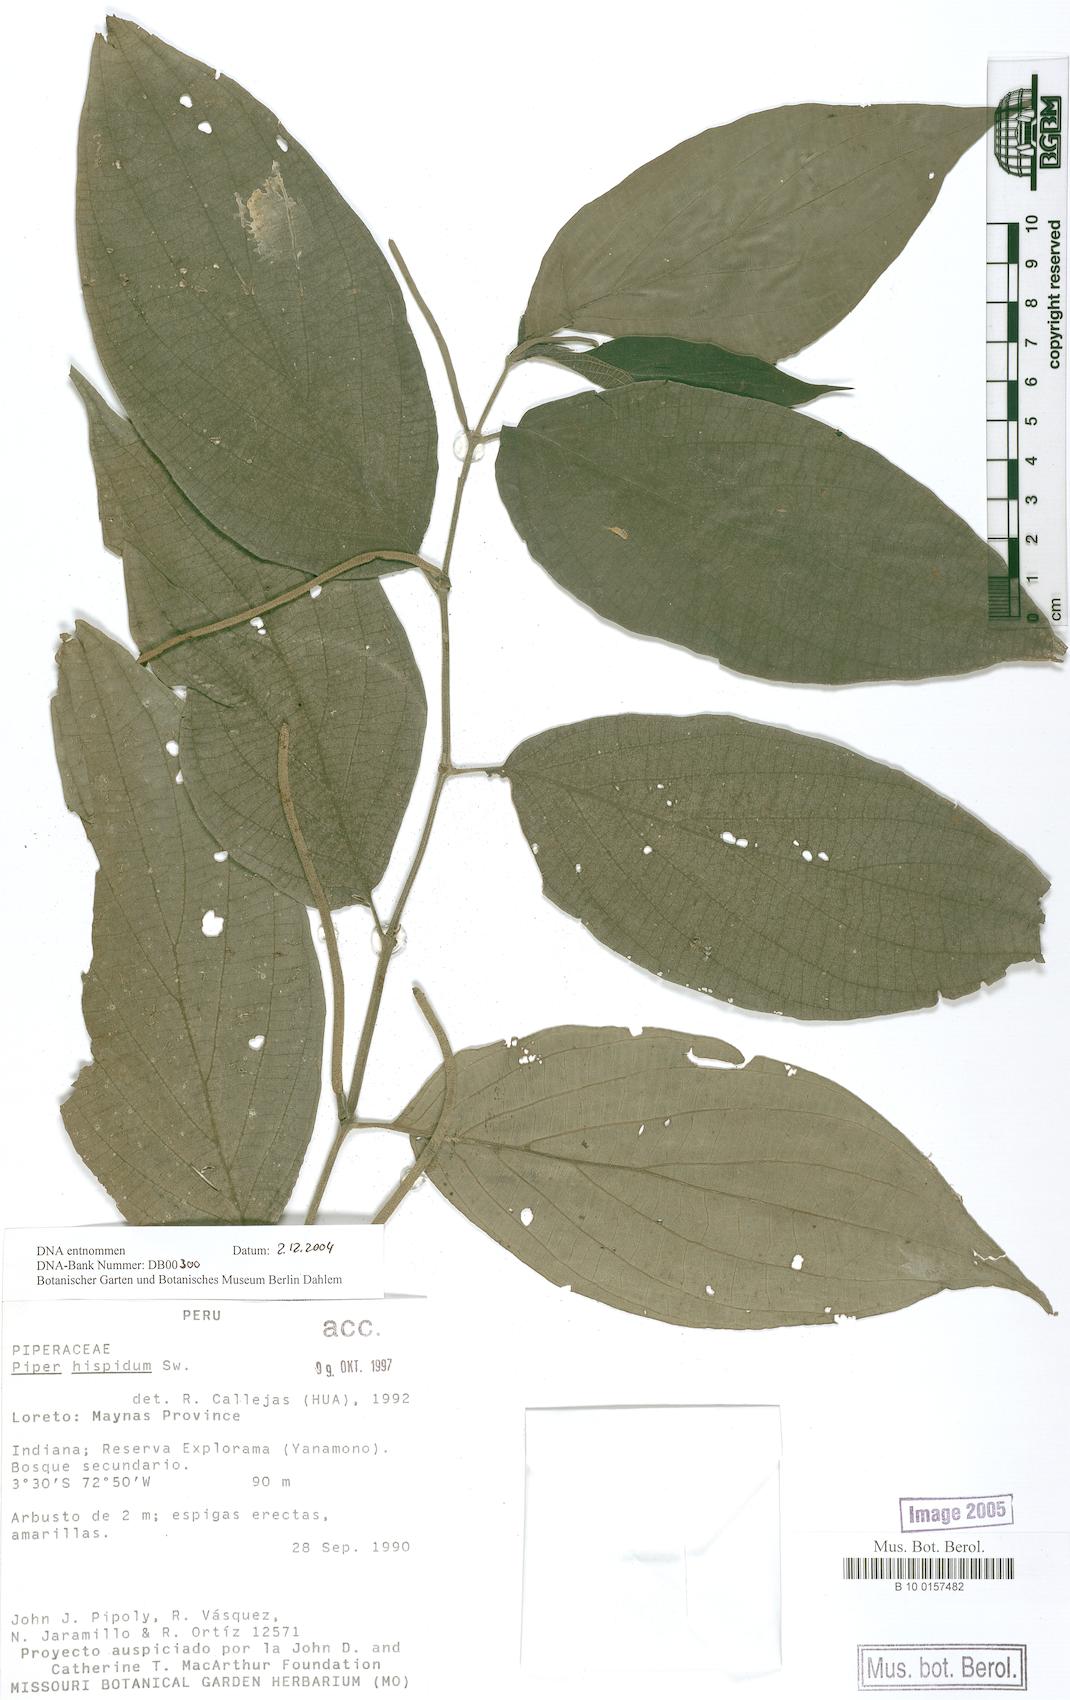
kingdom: Plantae
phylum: Tracheophyta
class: Magnoliopsida
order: Piperales
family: Piperaceae
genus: Piper
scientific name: Piper hispidum
